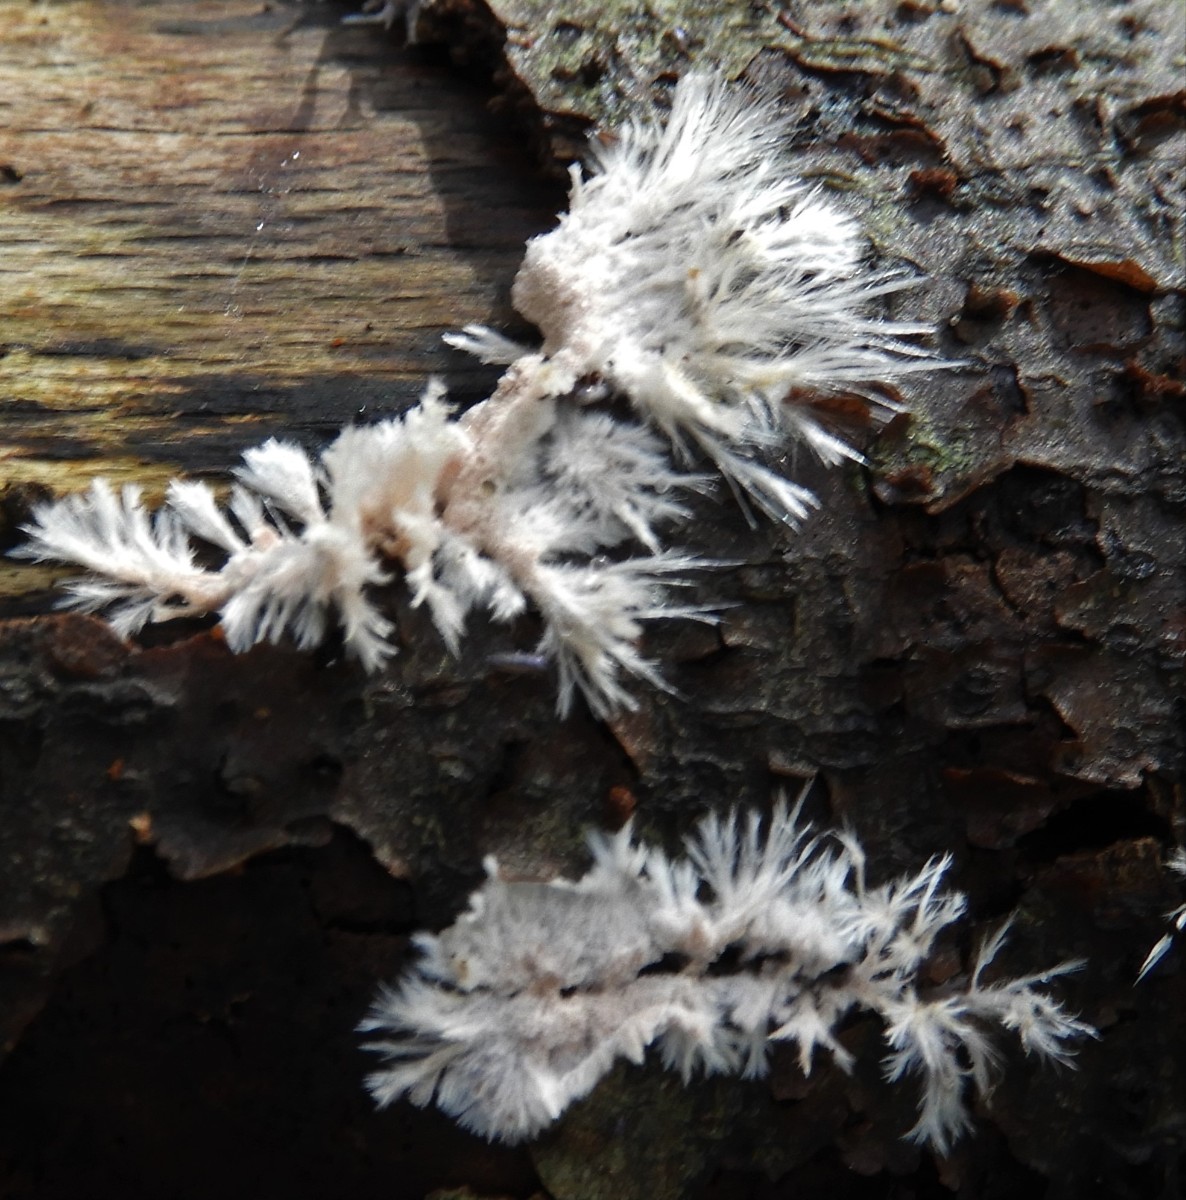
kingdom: Fungi
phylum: Basidiomycota
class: Agaricomycetes
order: Polyporales
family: Steccherinaceae
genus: Steccherinum
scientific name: Steccherinum fimbriatum
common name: trådet skønpig
